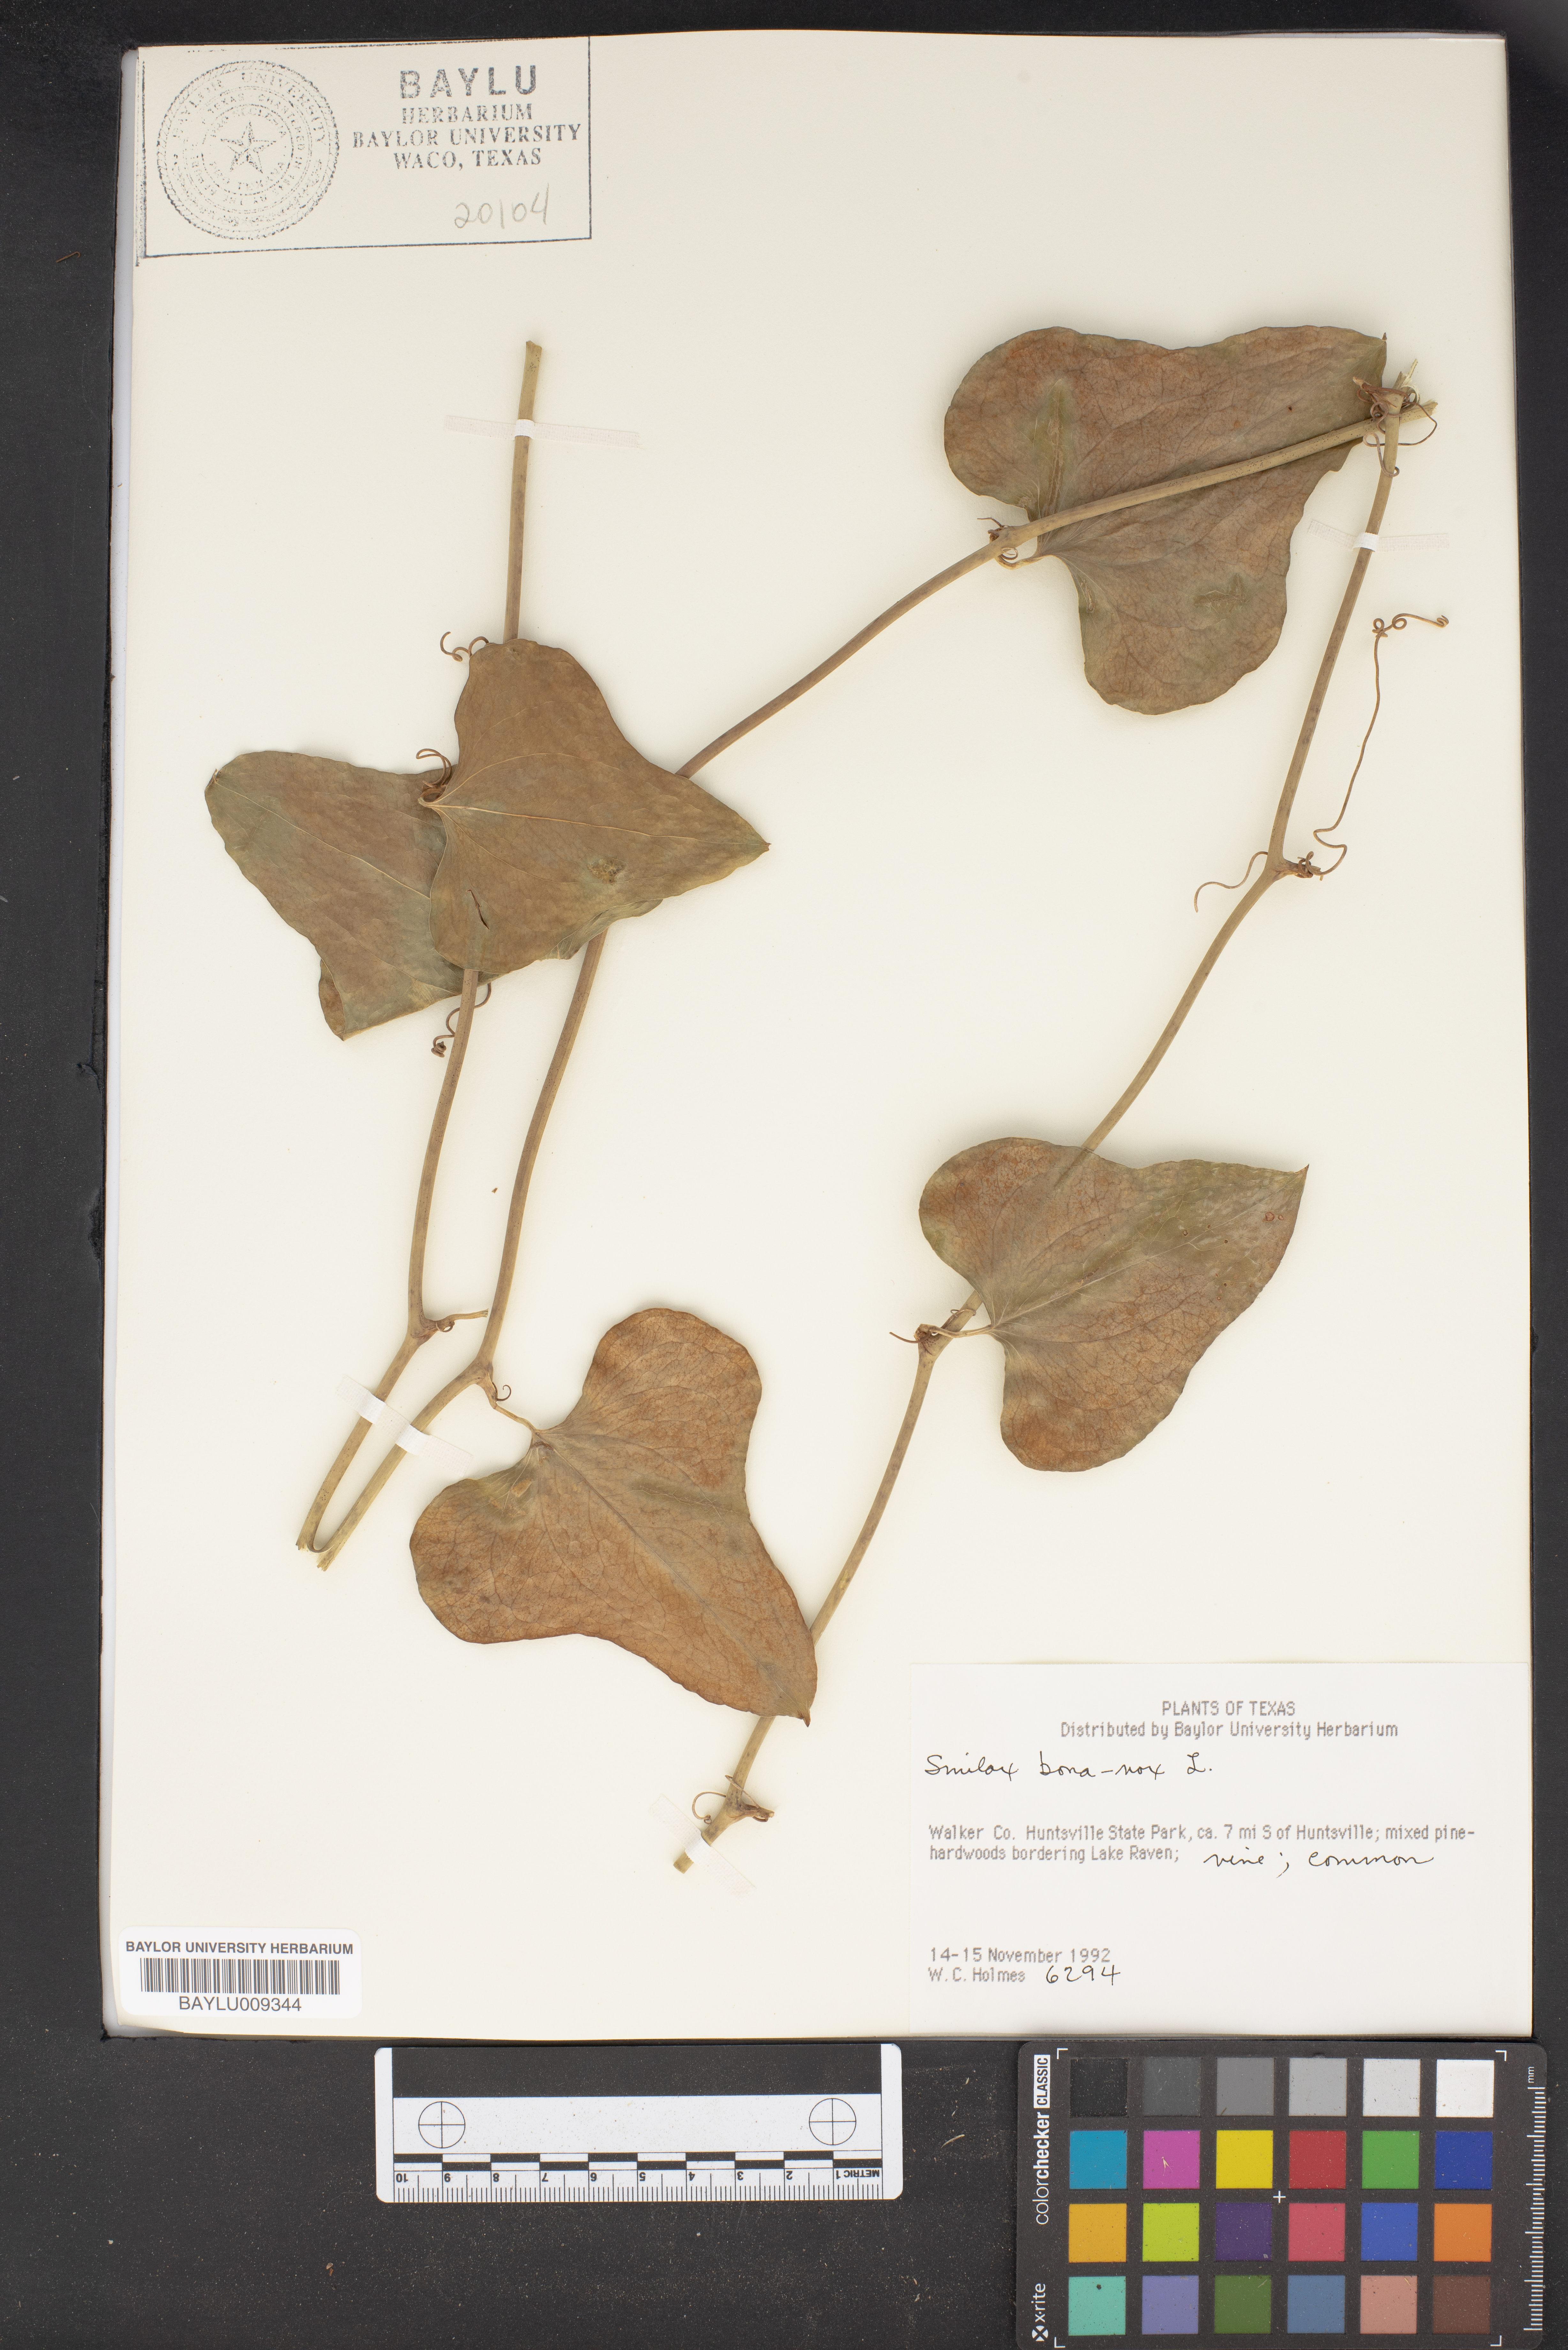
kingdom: Plantae
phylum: Tracheophyta
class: Liliopsida
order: Liliales
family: Smilacaceae
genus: Smilax
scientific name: Smilax bona-nox
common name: Catbrier
